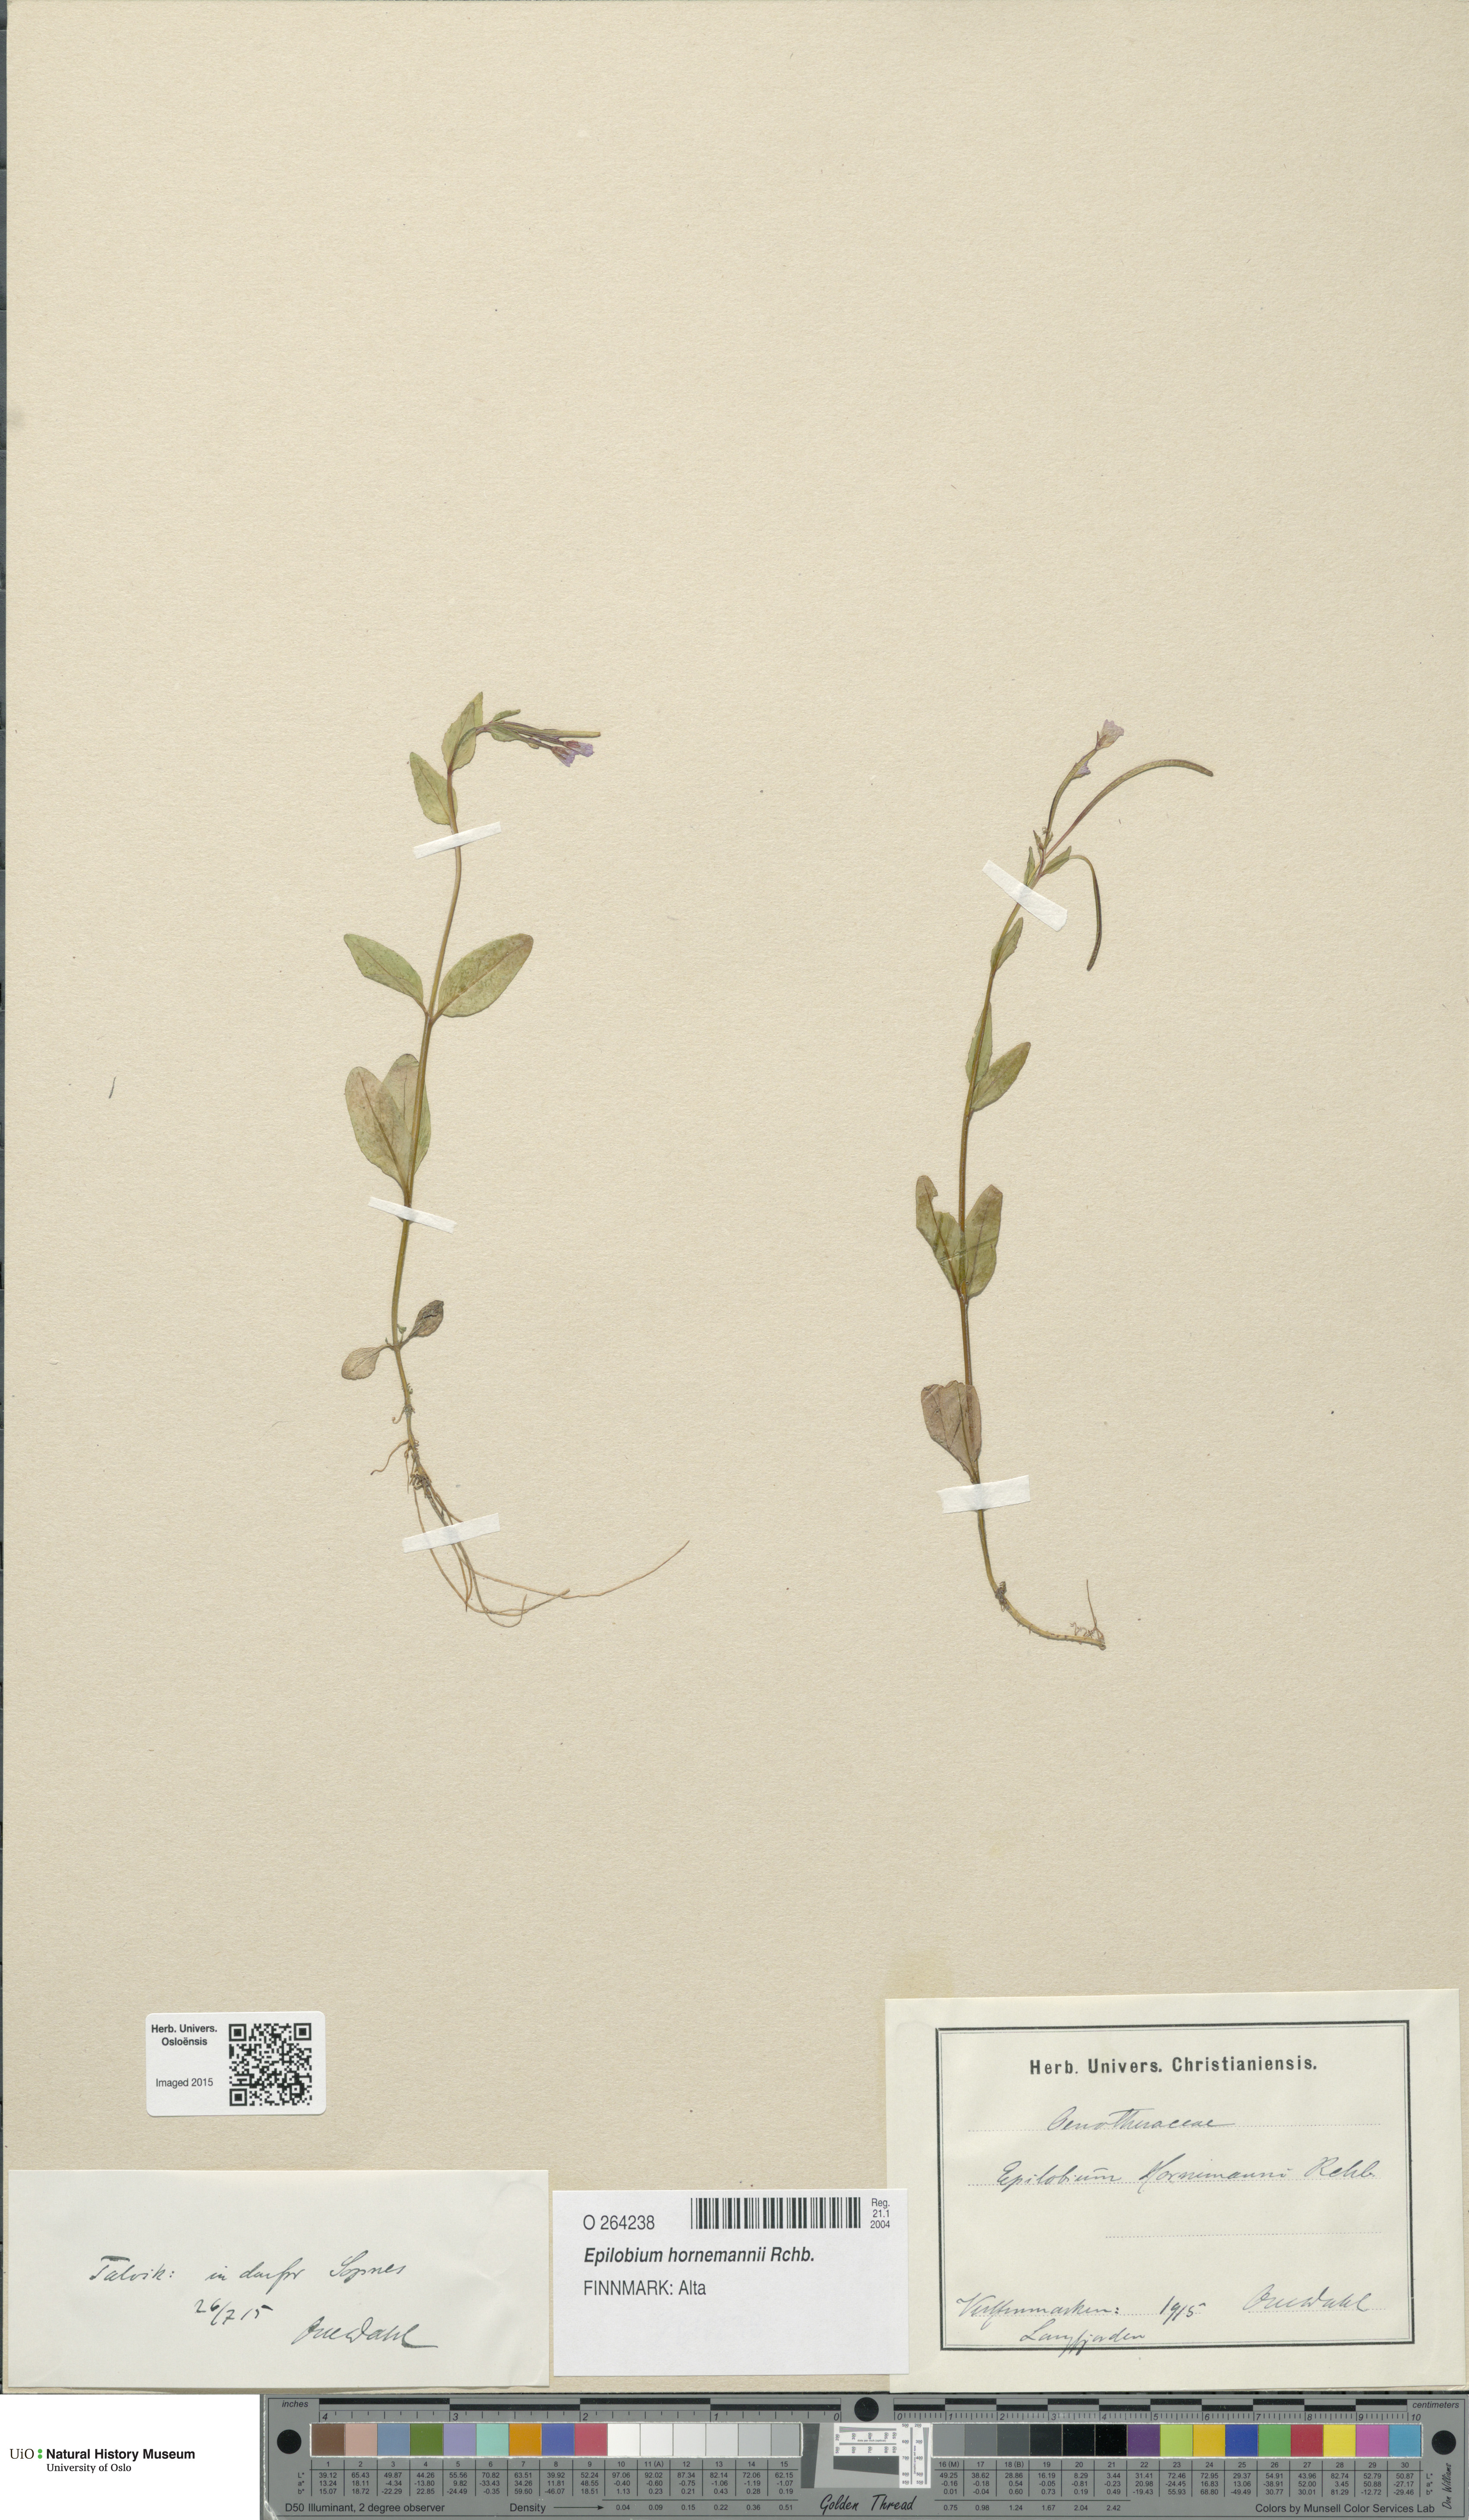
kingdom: Plantae
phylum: Tracheophyta
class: Magnoliopsida
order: Myrtales
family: Onagraceae
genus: Epilobium
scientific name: Epilobium hornemannii
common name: Hornemann's willowherb
